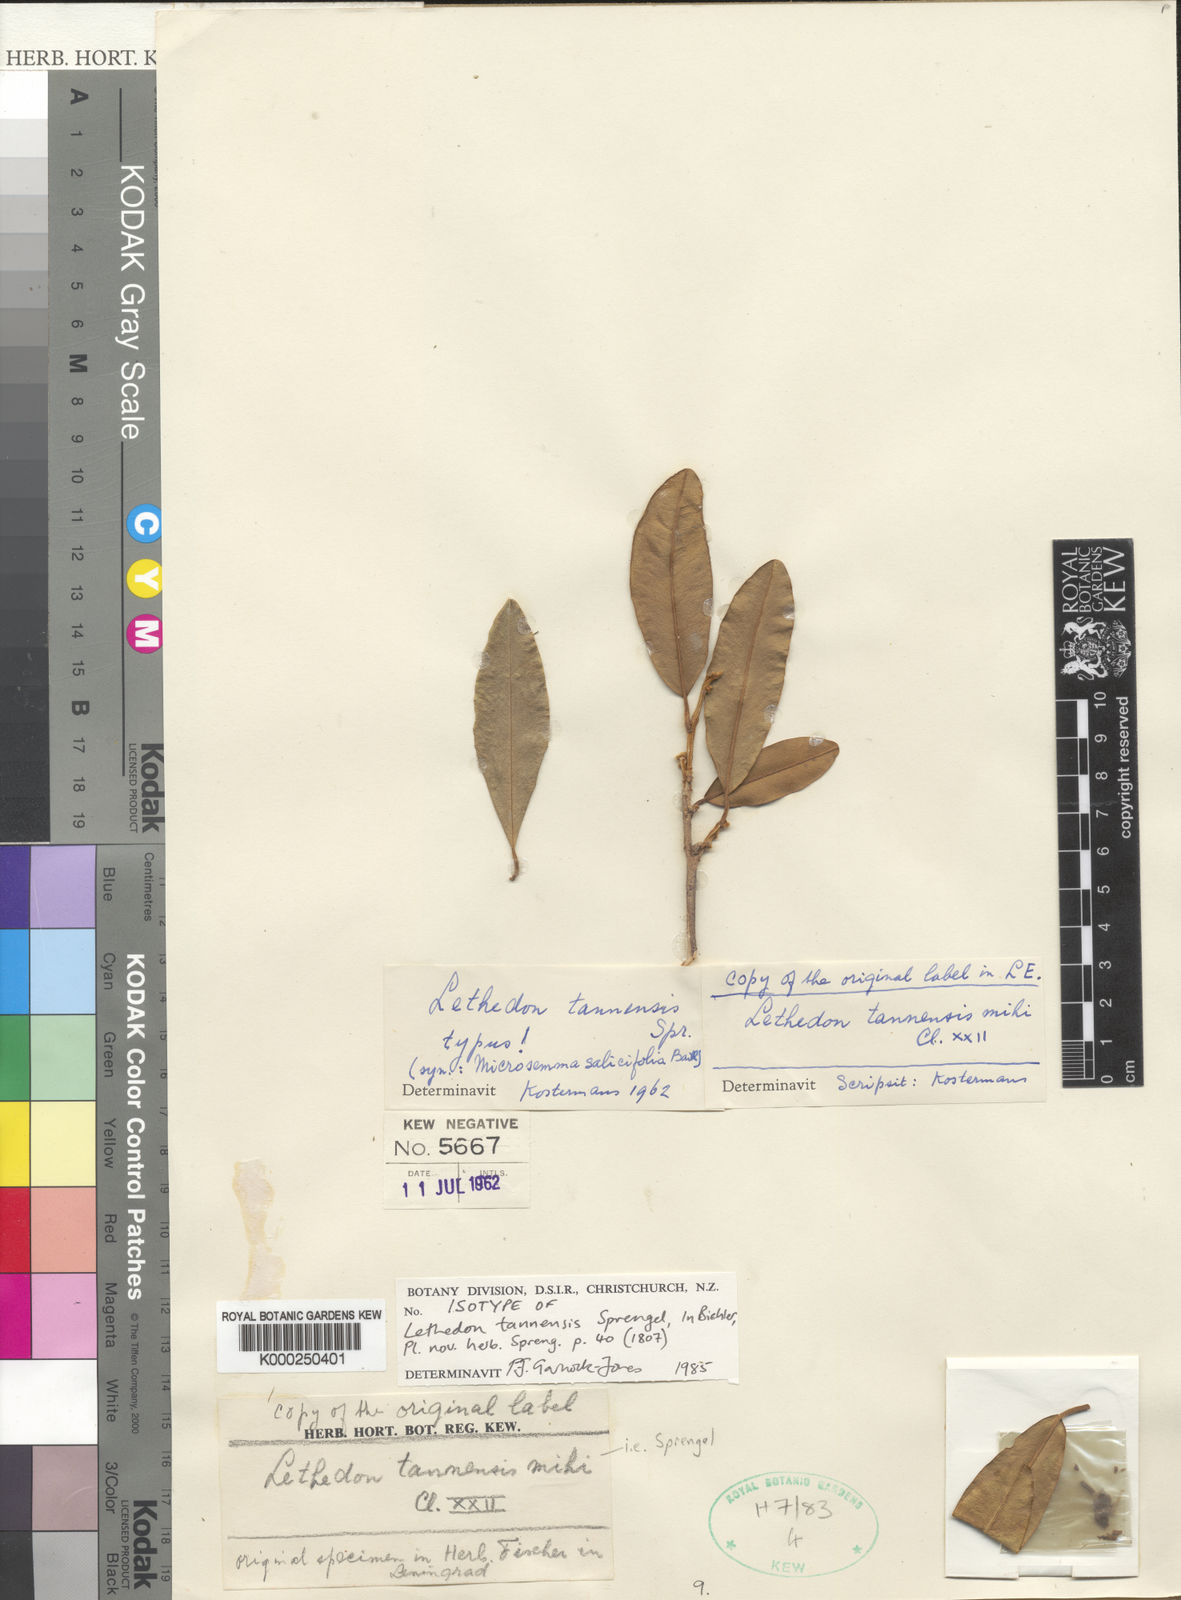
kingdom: Plantae
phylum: Tracheophyta
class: Magnoliopsida
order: Malvales
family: Thymelaeaceae
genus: Lethedon
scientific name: Lethedon
